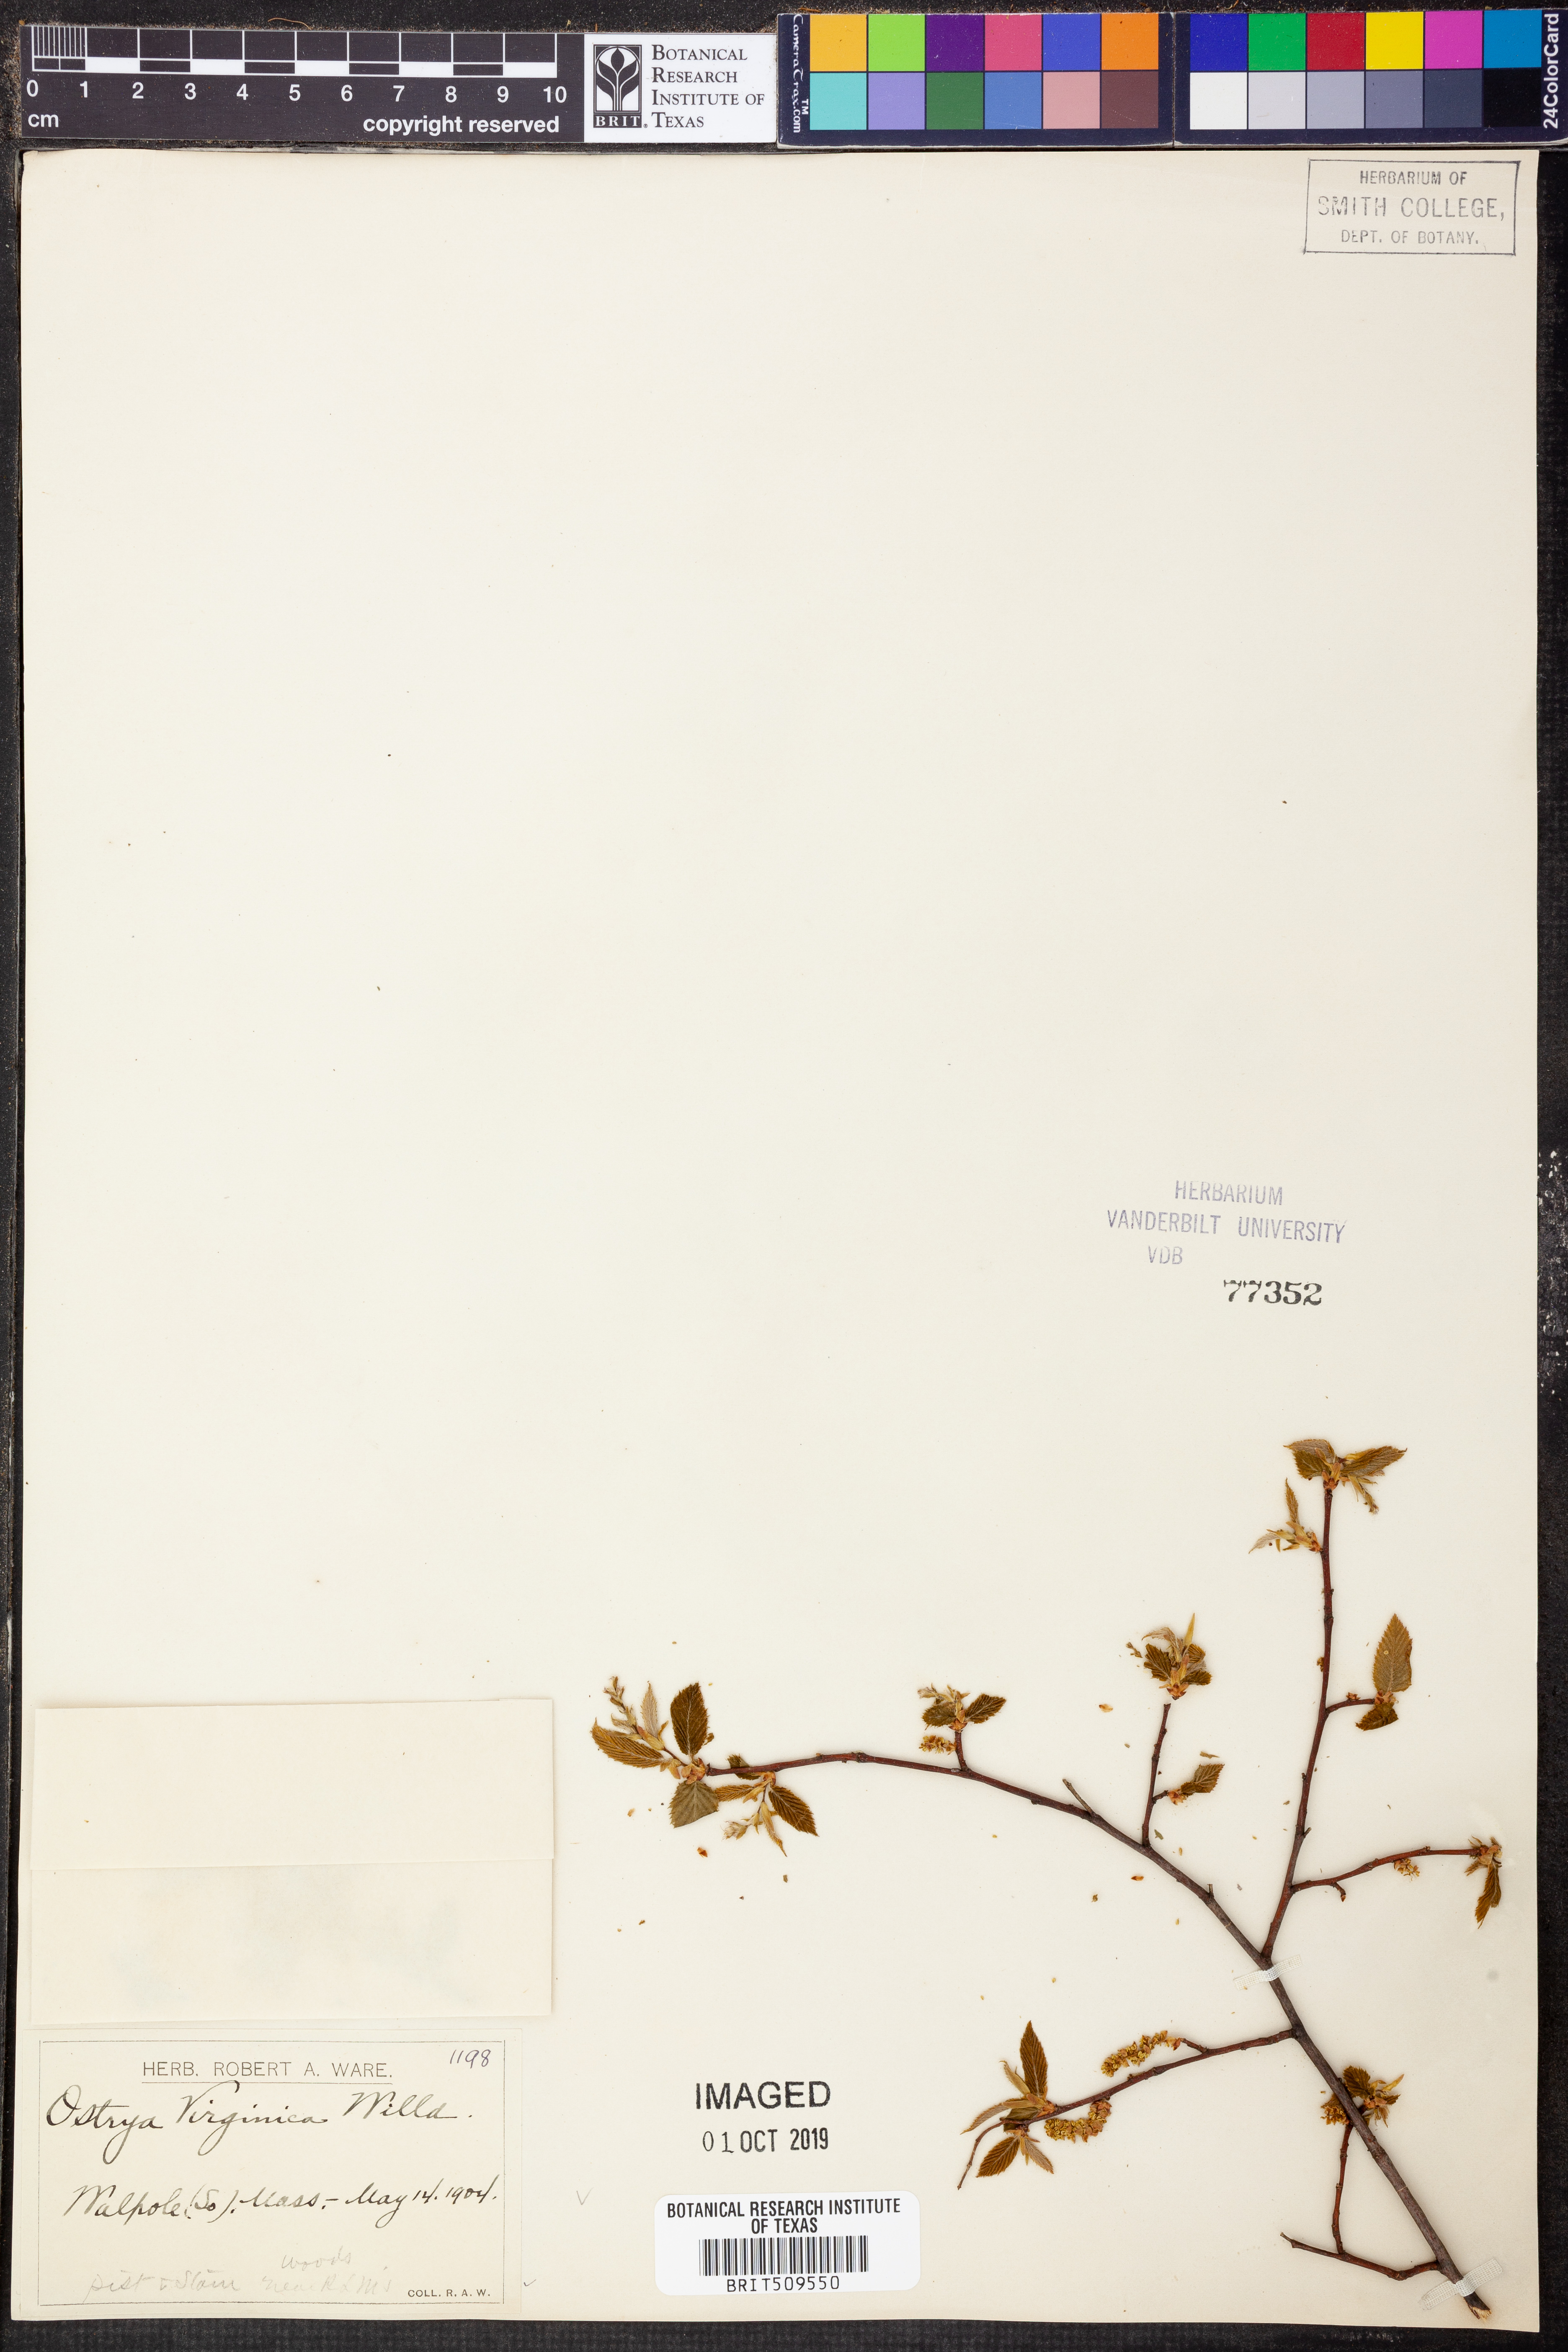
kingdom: Plantae
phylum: Tracheophyta
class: Magnoliopsida
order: Fagales
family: Betulaceae
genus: Ostrya
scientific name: Ostrya virginiana
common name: Ironwood
